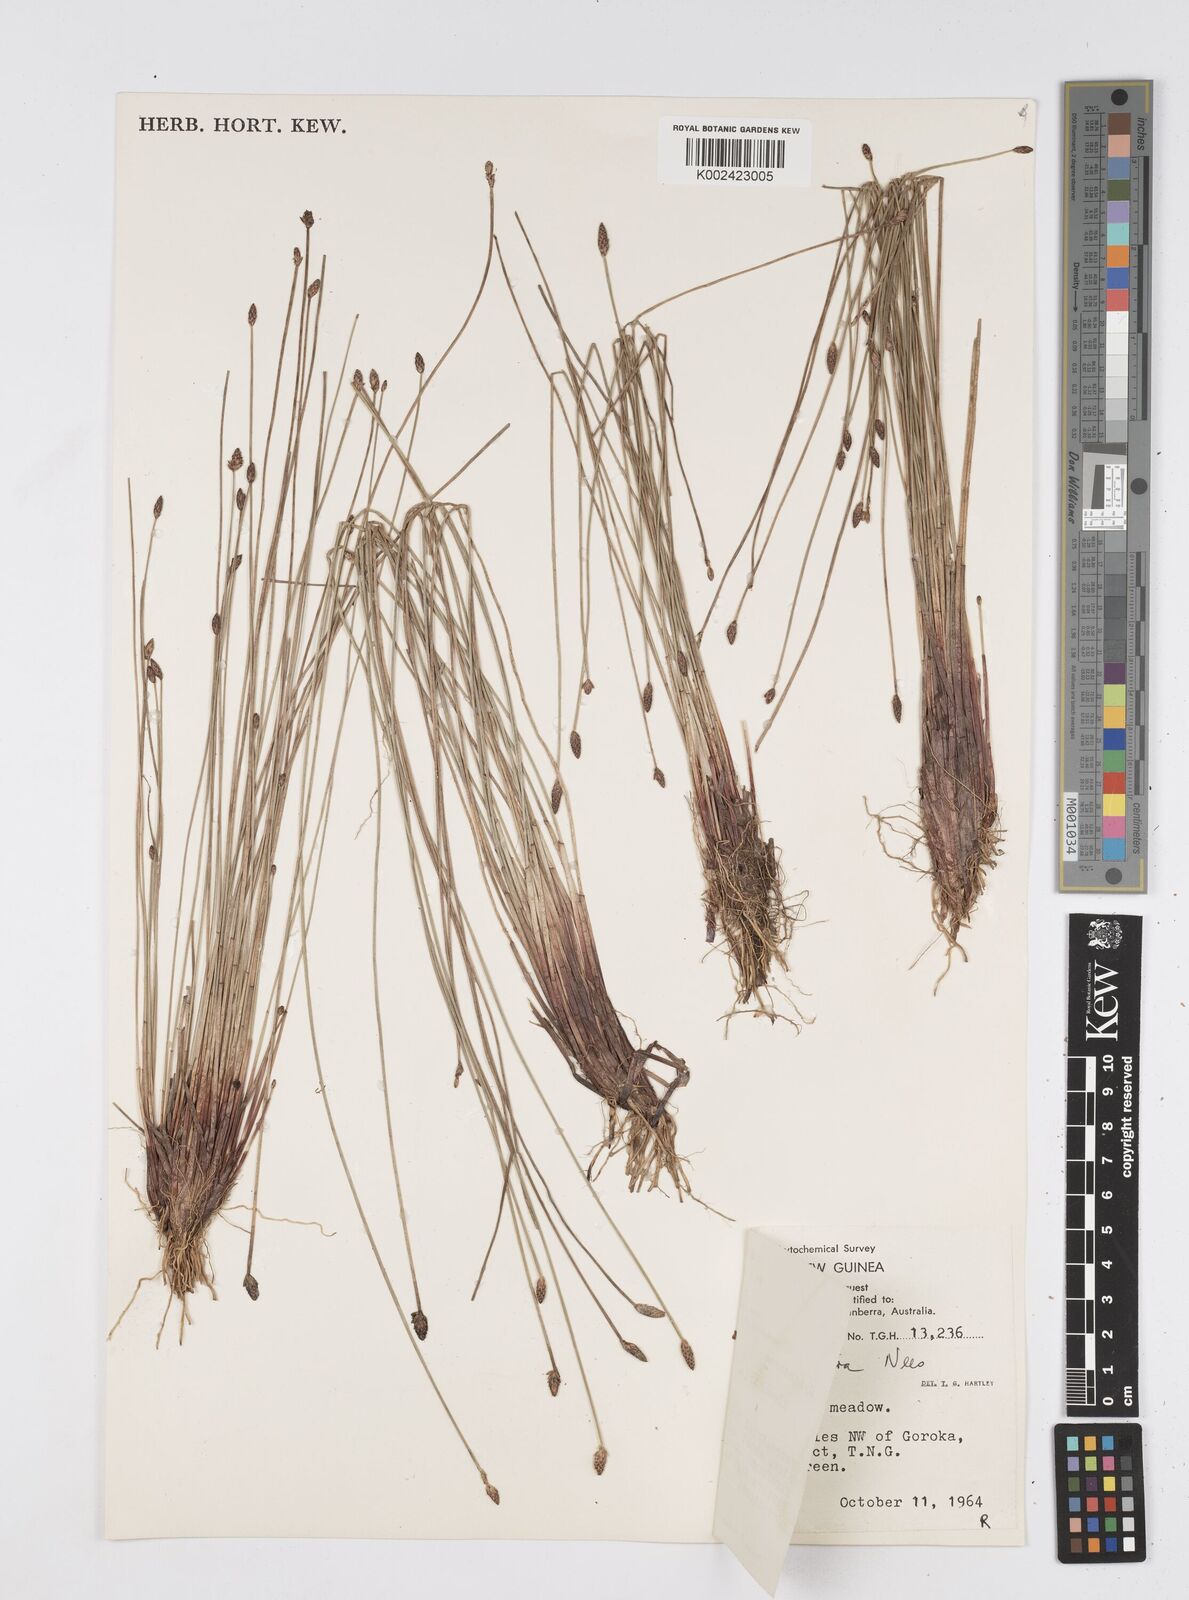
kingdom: Plantae
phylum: Tracheophyta
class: Liliopsida
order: Poales
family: Cyperaceae
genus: Eleocharis
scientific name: Eleocharis tetraquetra
